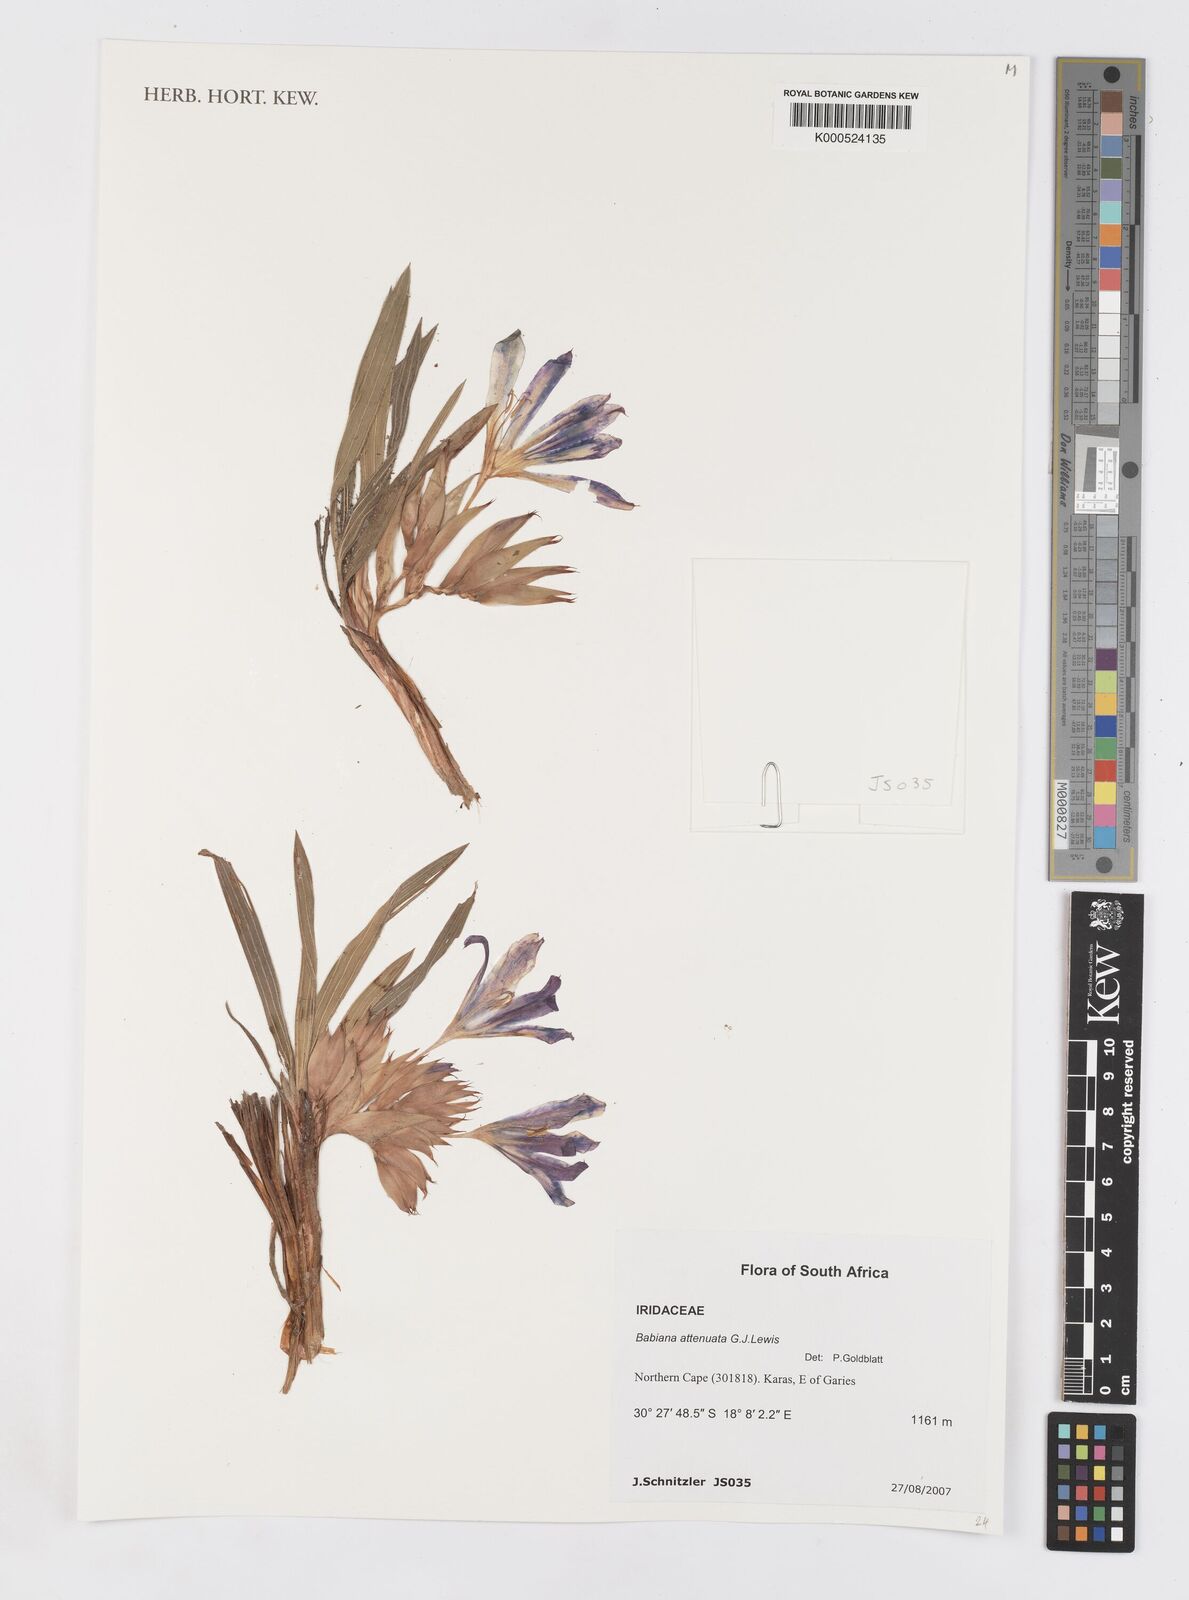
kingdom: Plantae
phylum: Tracheophyta
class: Liliopsida
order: Asparagales
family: Iridaceae
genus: Babiana
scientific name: Babiana attenuata
